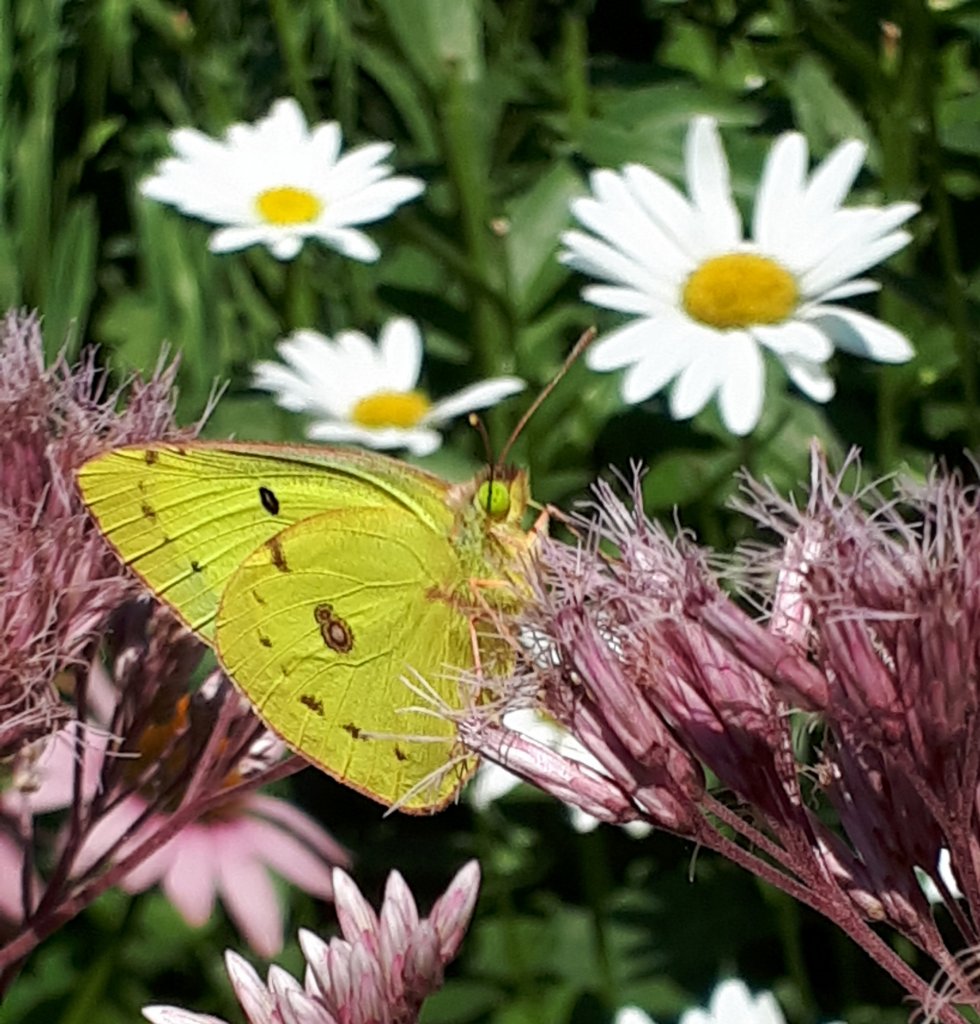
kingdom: Animalia
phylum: Arthropoda
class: Insecta
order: Lepidoptera
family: Pieridae
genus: Colias
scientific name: Colias philodice
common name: Clouded Sulphur
